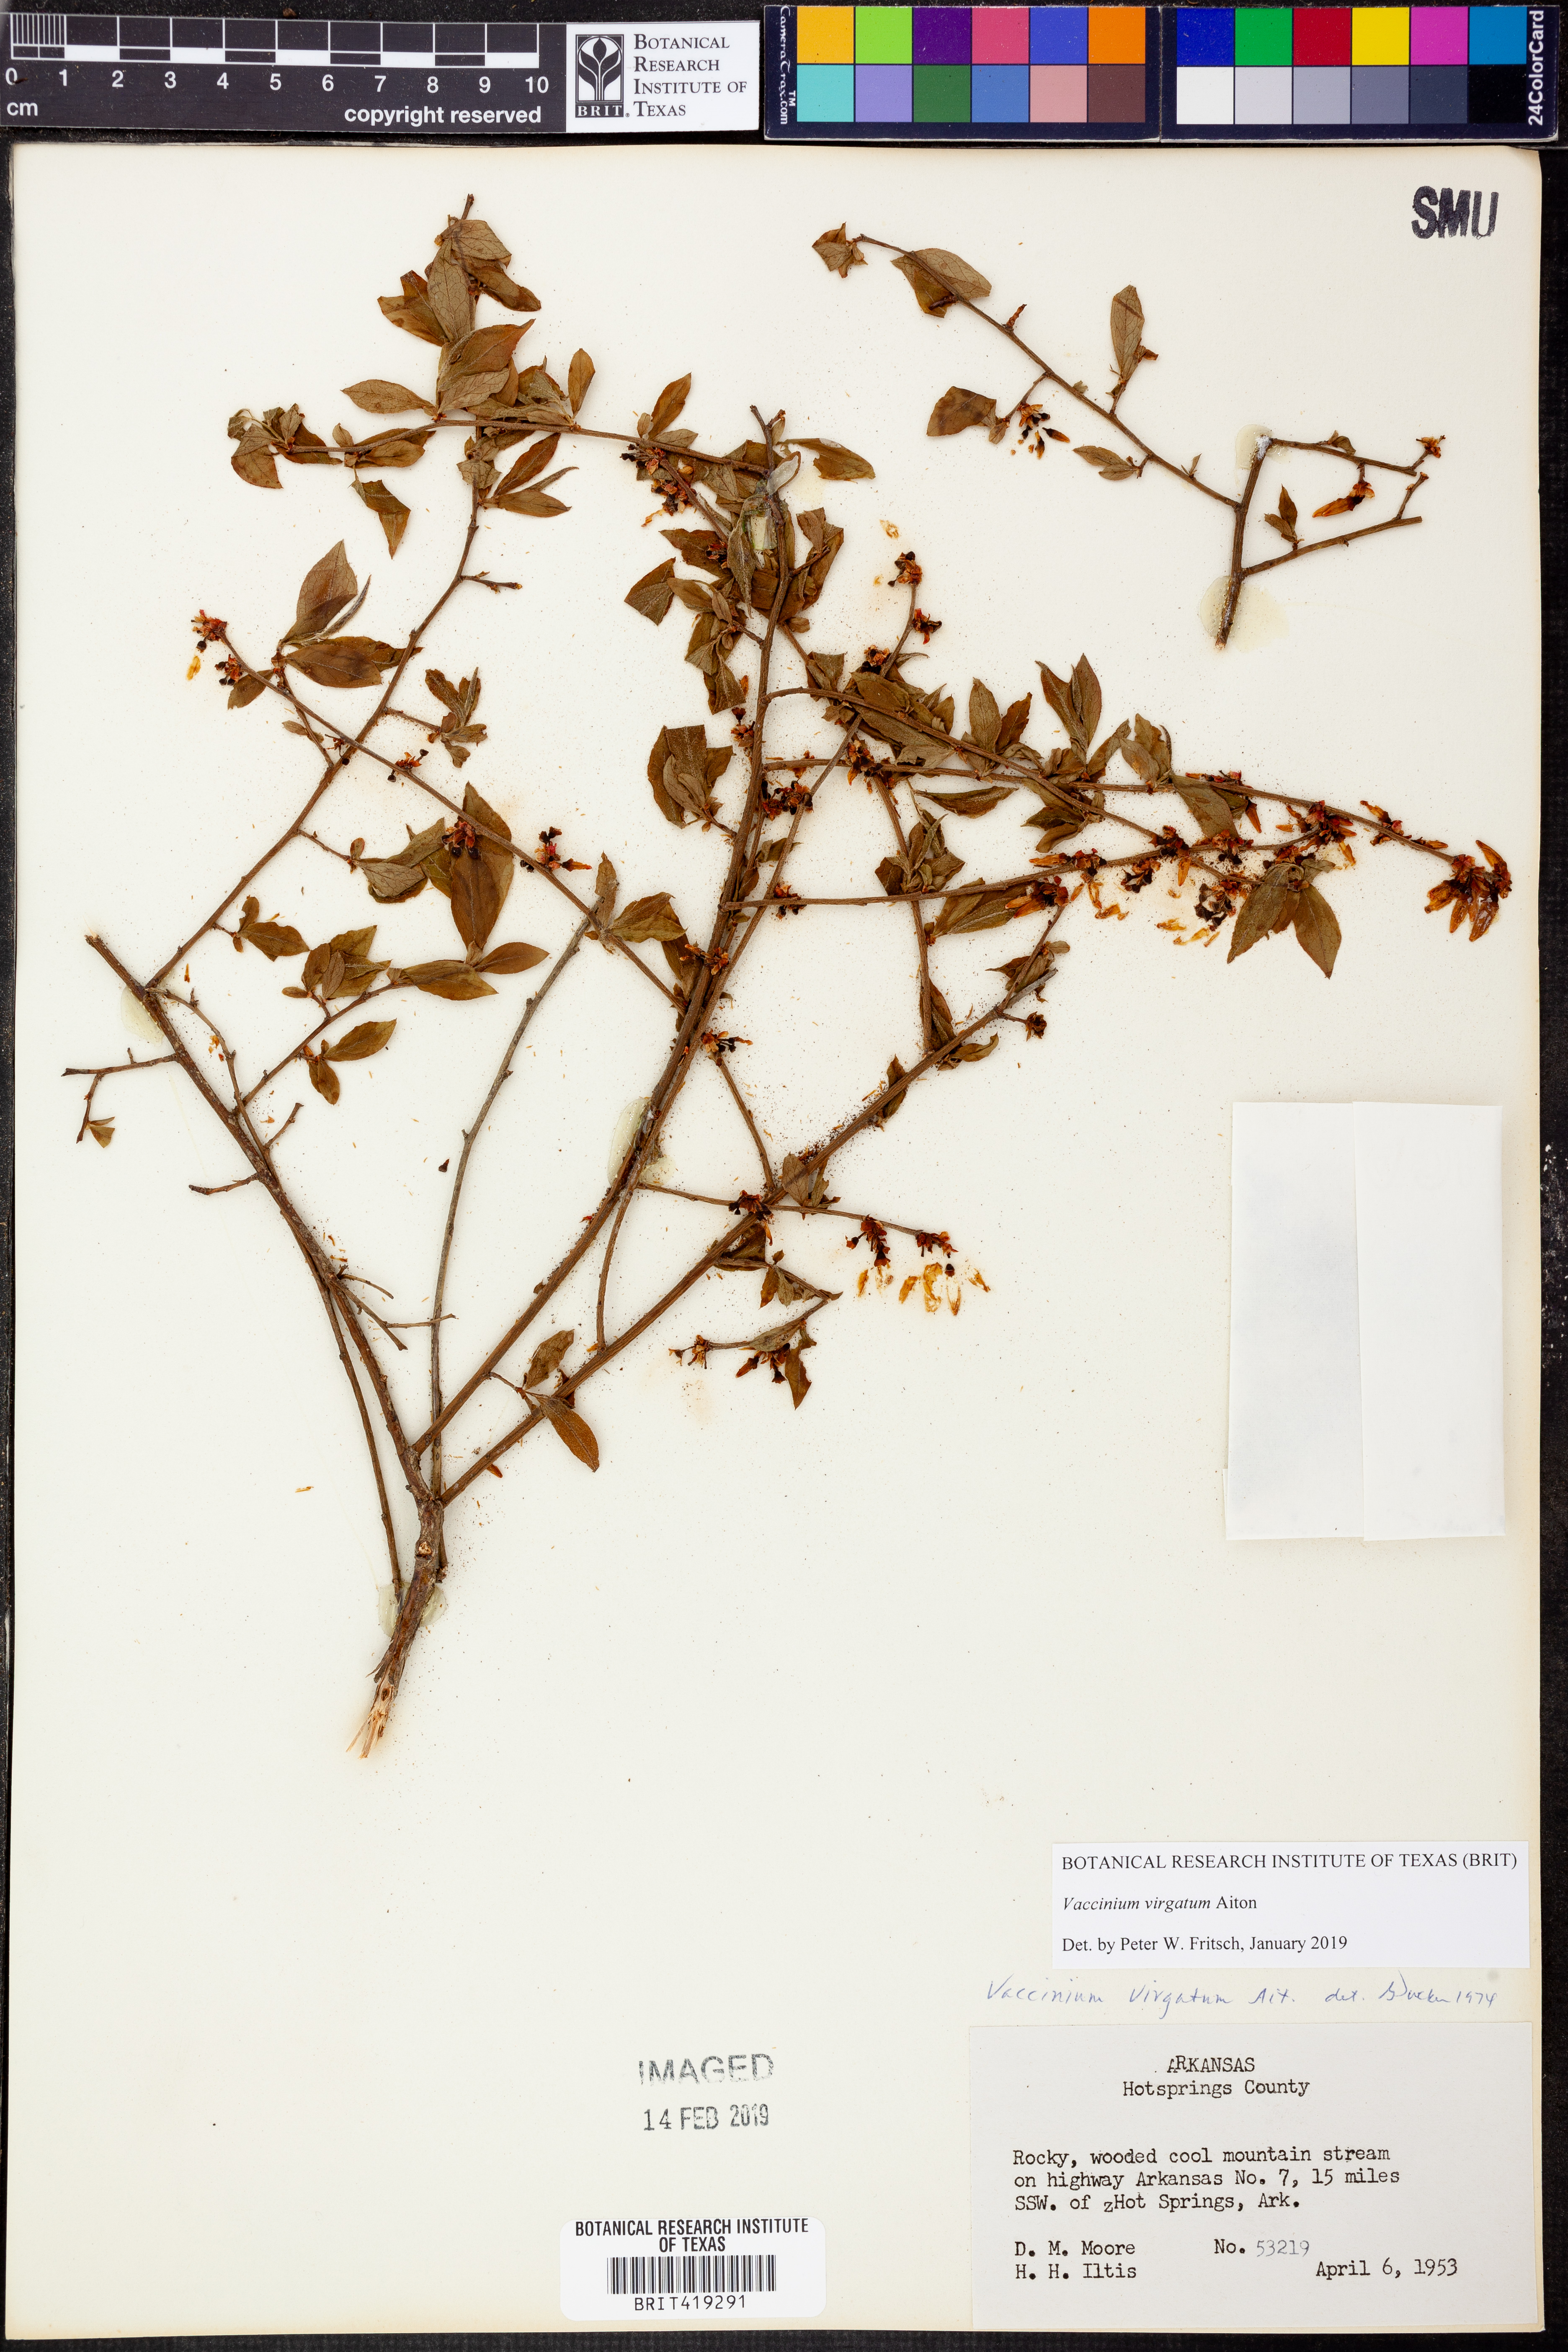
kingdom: Plantae
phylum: Tracheophyta
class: Magnoliopsida
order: Ericales
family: Ericaceae
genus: Vaccinium
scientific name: Vaccinium corymbosum
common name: Blueberry
